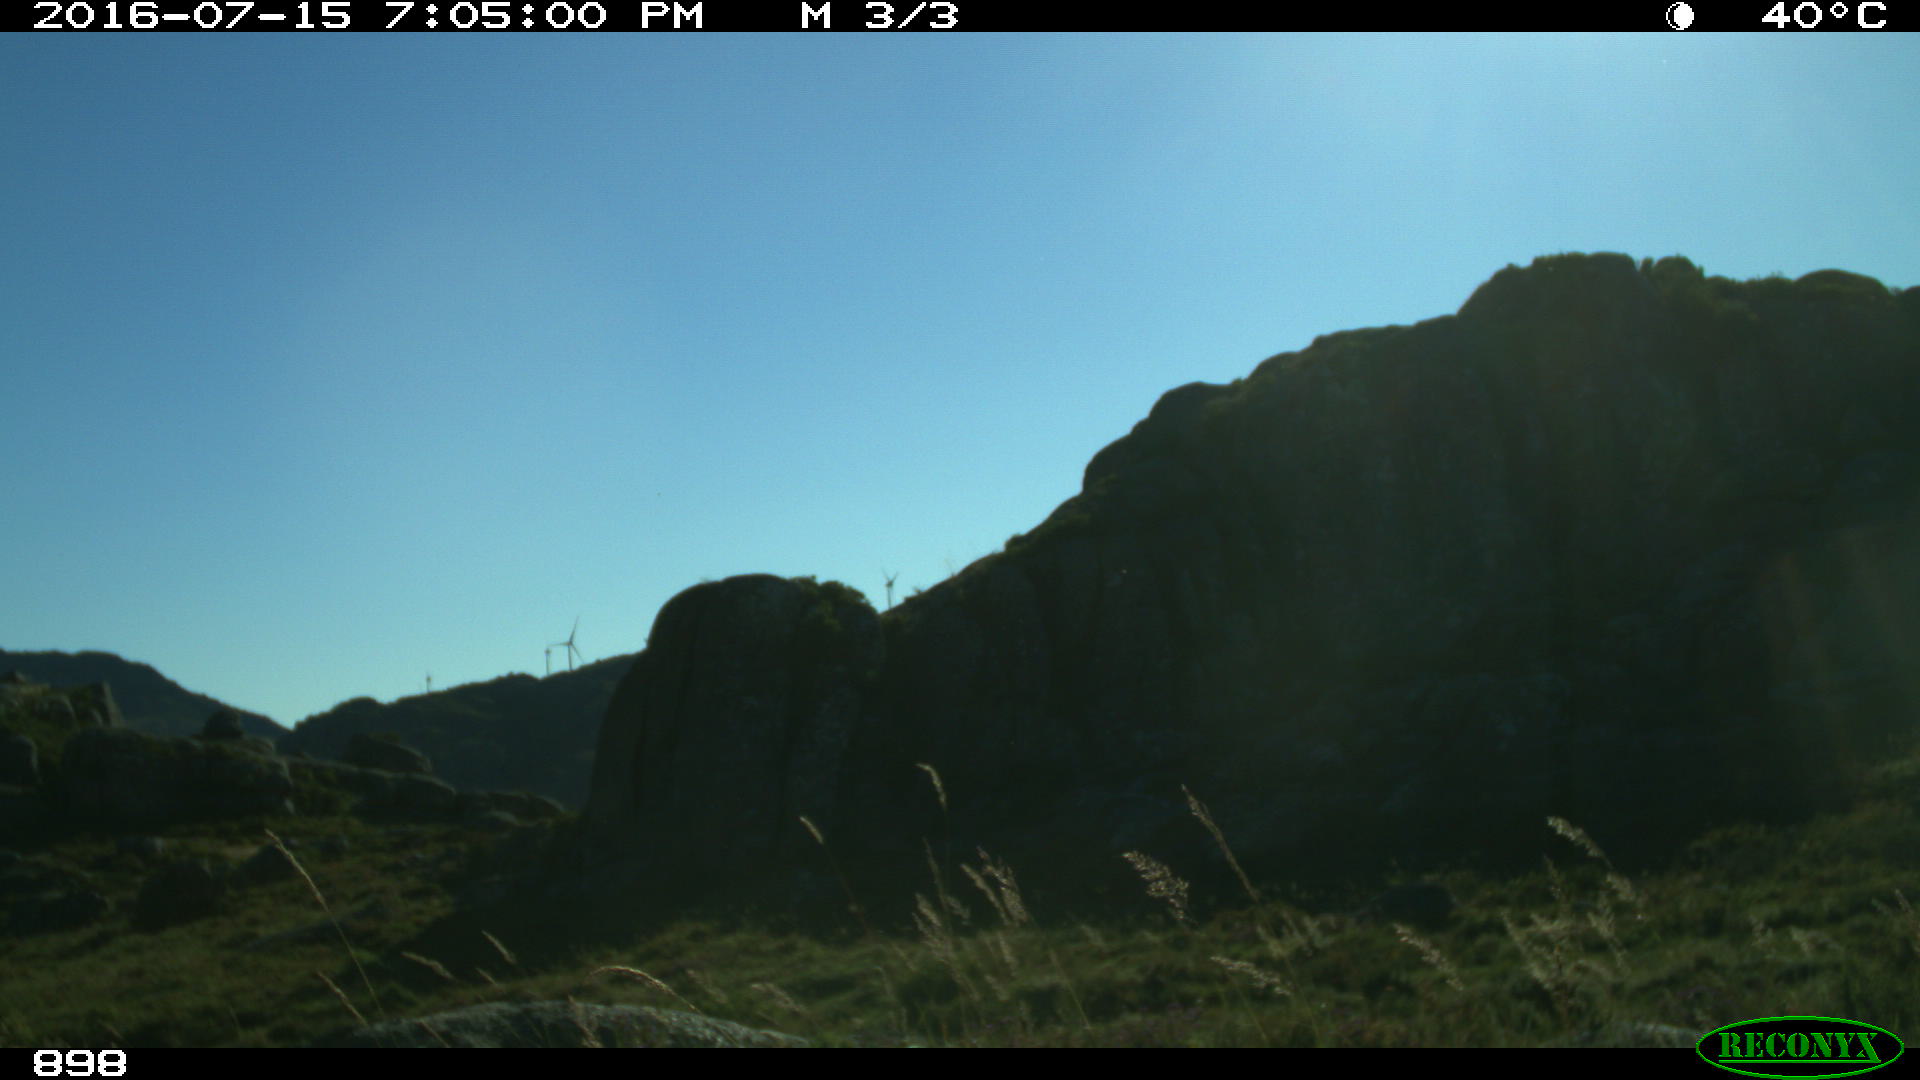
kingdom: Animalia
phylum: Chordata
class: Mammalia
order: Perissodactyla
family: Equidae
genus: Equus
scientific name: Equus caballus
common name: Horse
